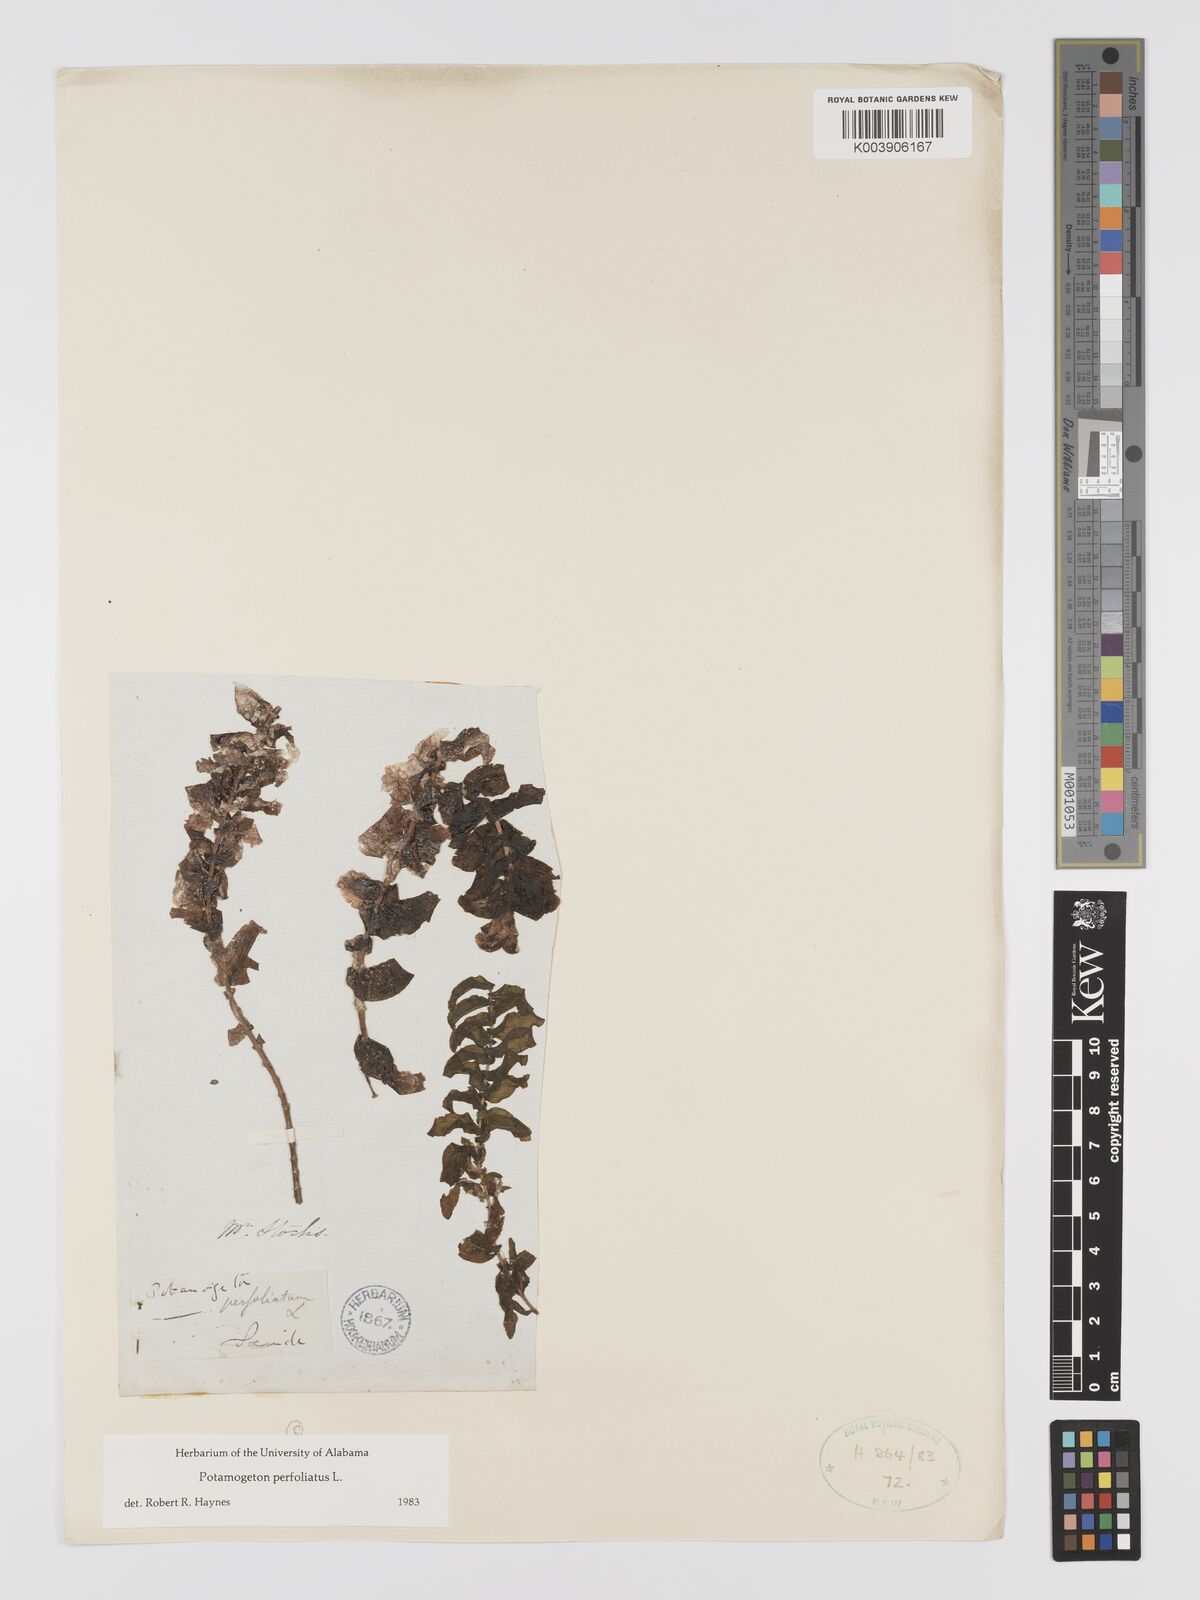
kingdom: Plantae
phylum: Tracheophyta
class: Liliopsida
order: Alismatales
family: Potamogetonaceae
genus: Potamogeton
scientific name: Potamogeton perfoliatus
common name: Perfoliate pondweed
